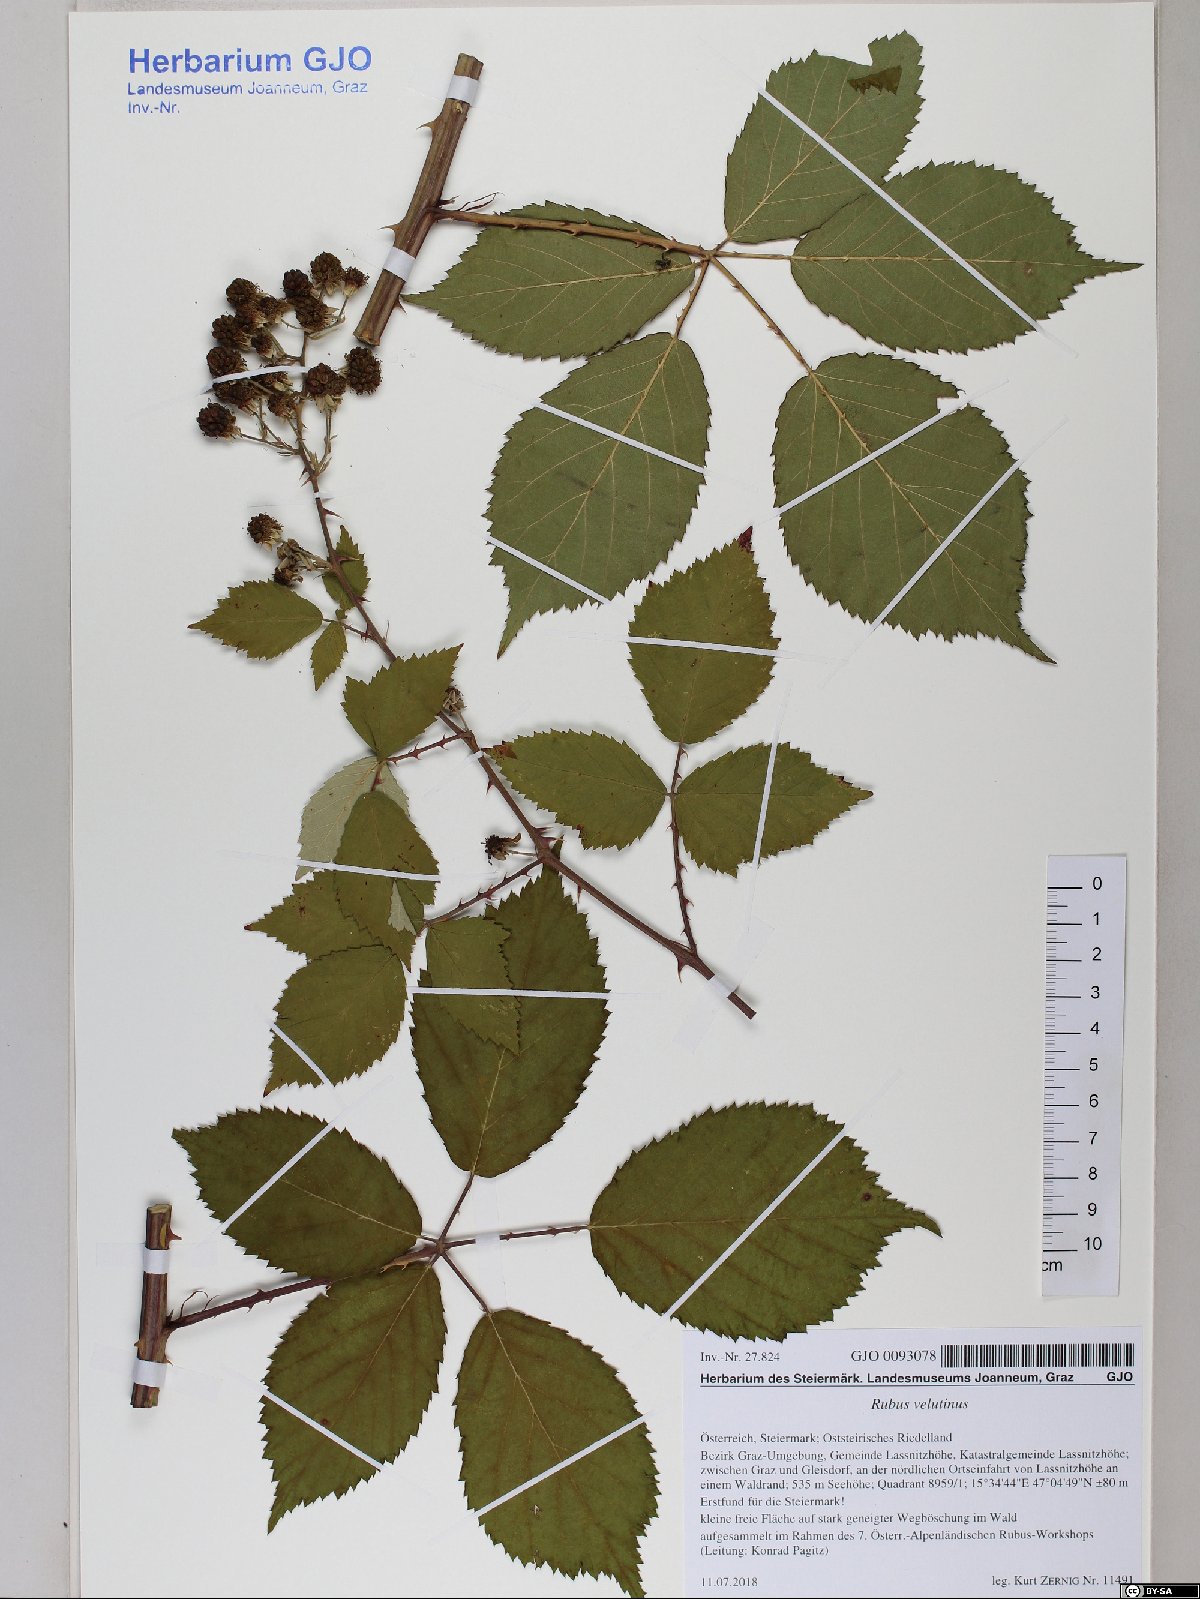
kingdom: Plantae
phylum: Tracheophyta
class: Magnoliopsida
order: Rosales
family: Rosaceae
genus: Rubus
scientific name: Rubus velutinus
